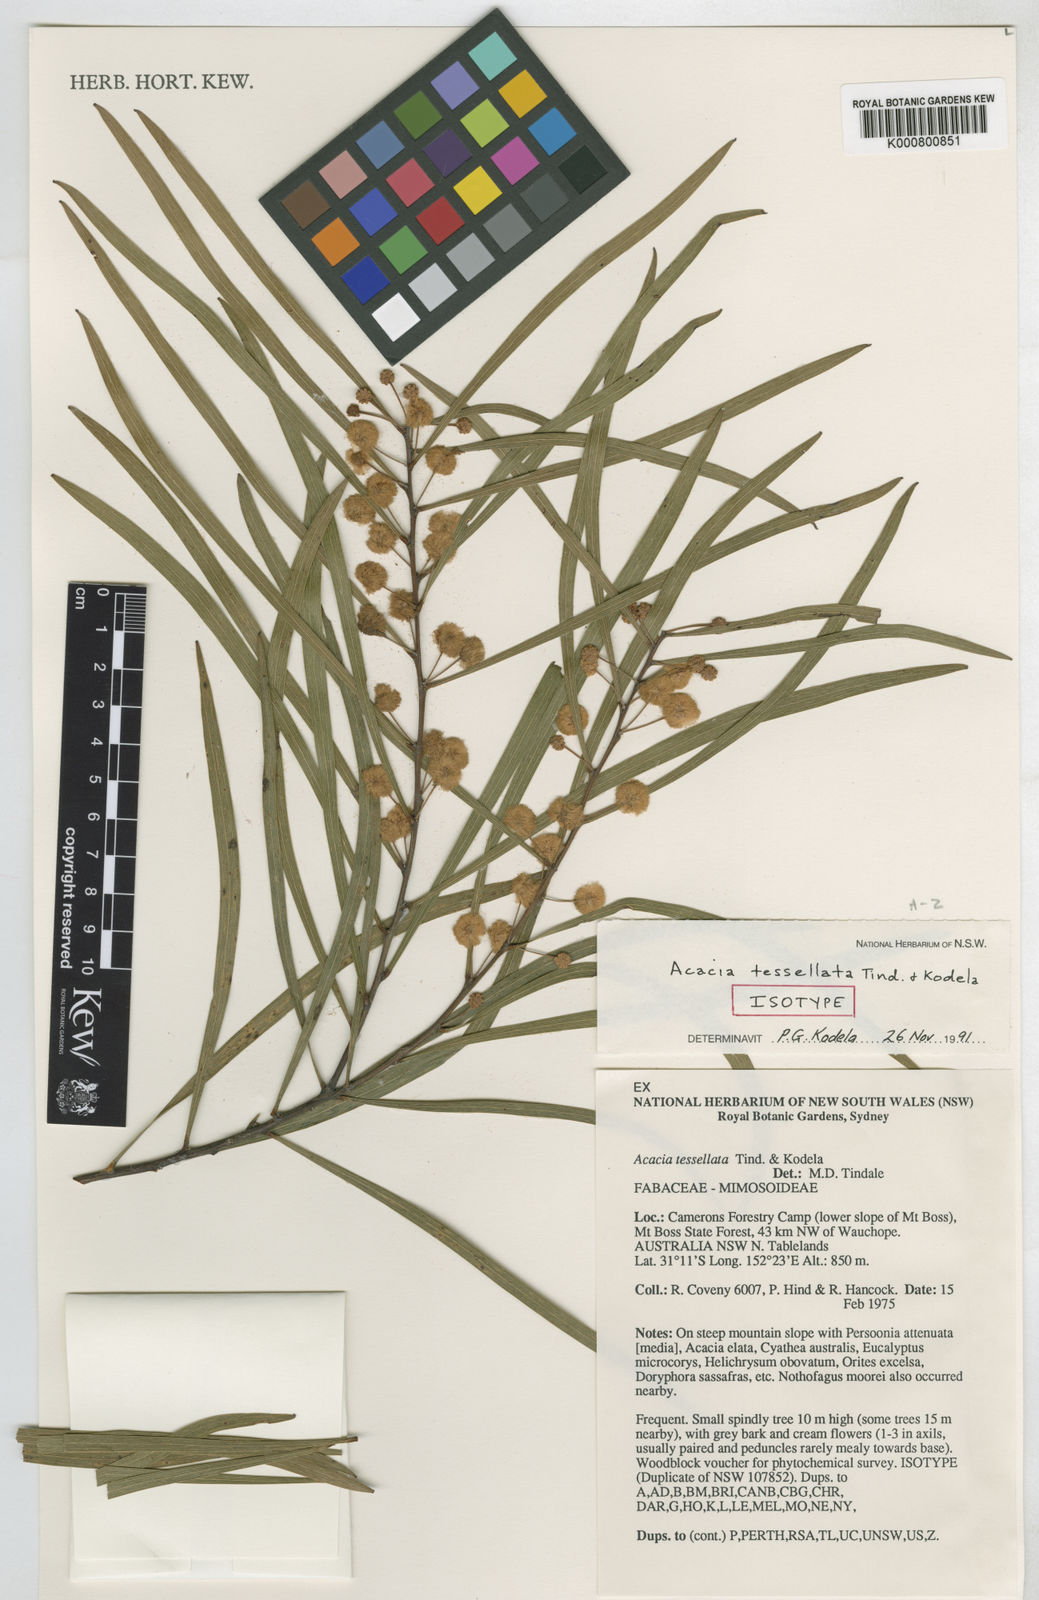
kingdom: Plantae
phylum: Tracheophyta
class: Magnoliopsida
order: Fabales
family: Fabaceae
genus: Acacia
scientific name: Acacia tessellata
